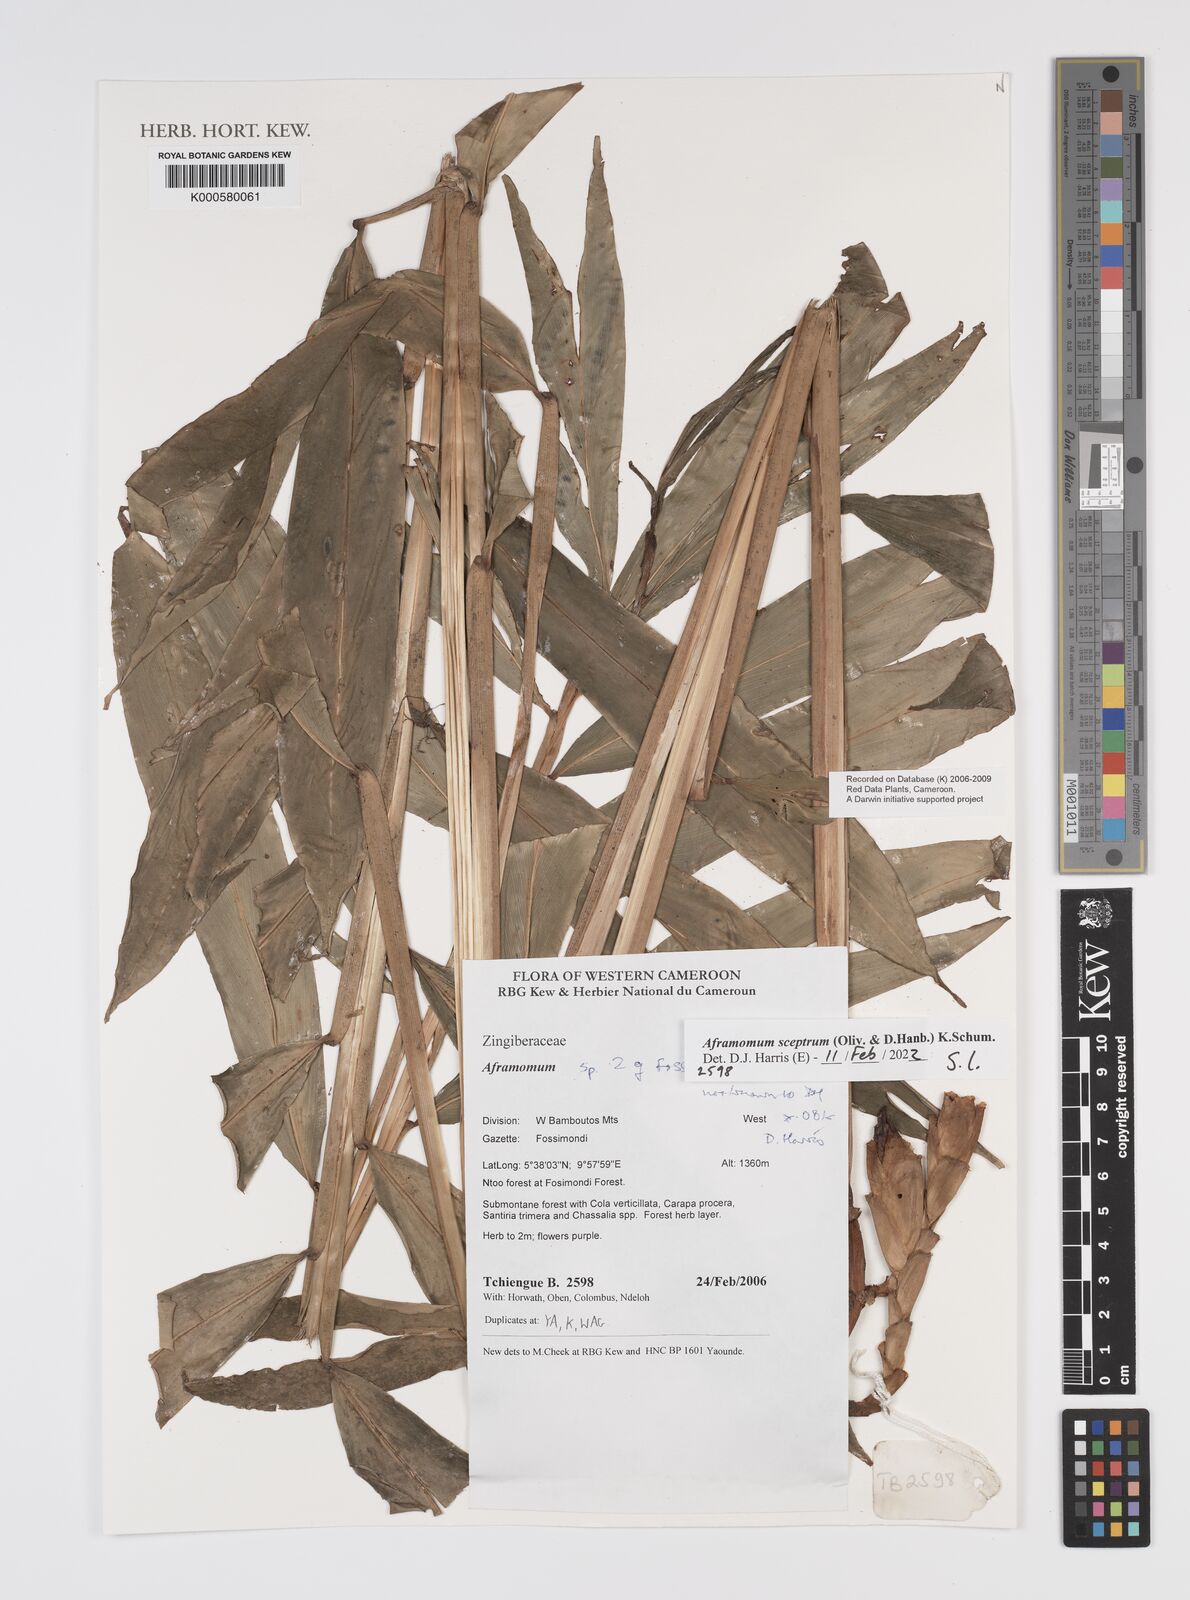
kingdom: Plantae
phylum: Tracheophyta
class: Liliopsida
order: Zingiberales
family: Zingiberaceae
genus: Aframomum
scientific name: Aframomum
